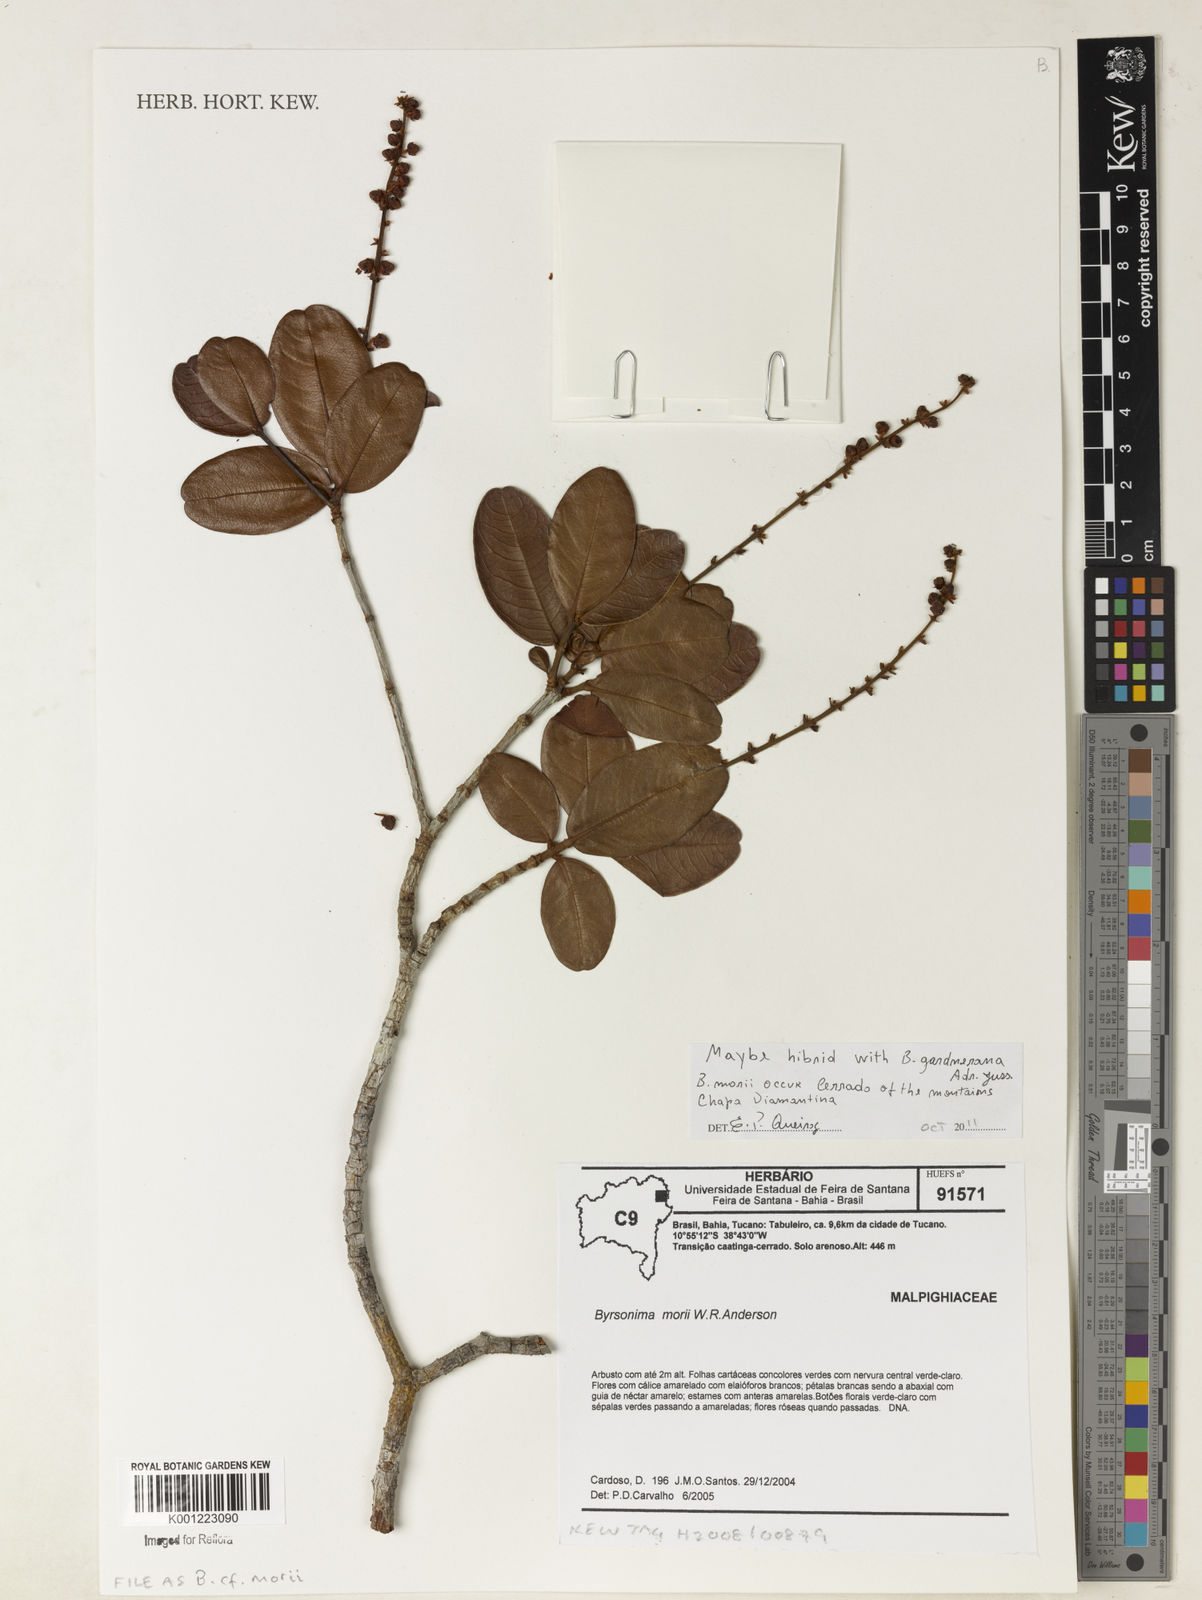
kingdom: Plantae
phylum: Tracheophyta
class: Magnoliopsida
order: Malpighiales
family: Malpighiaceae
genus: Byrsonima
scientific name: Byrsonima morii
